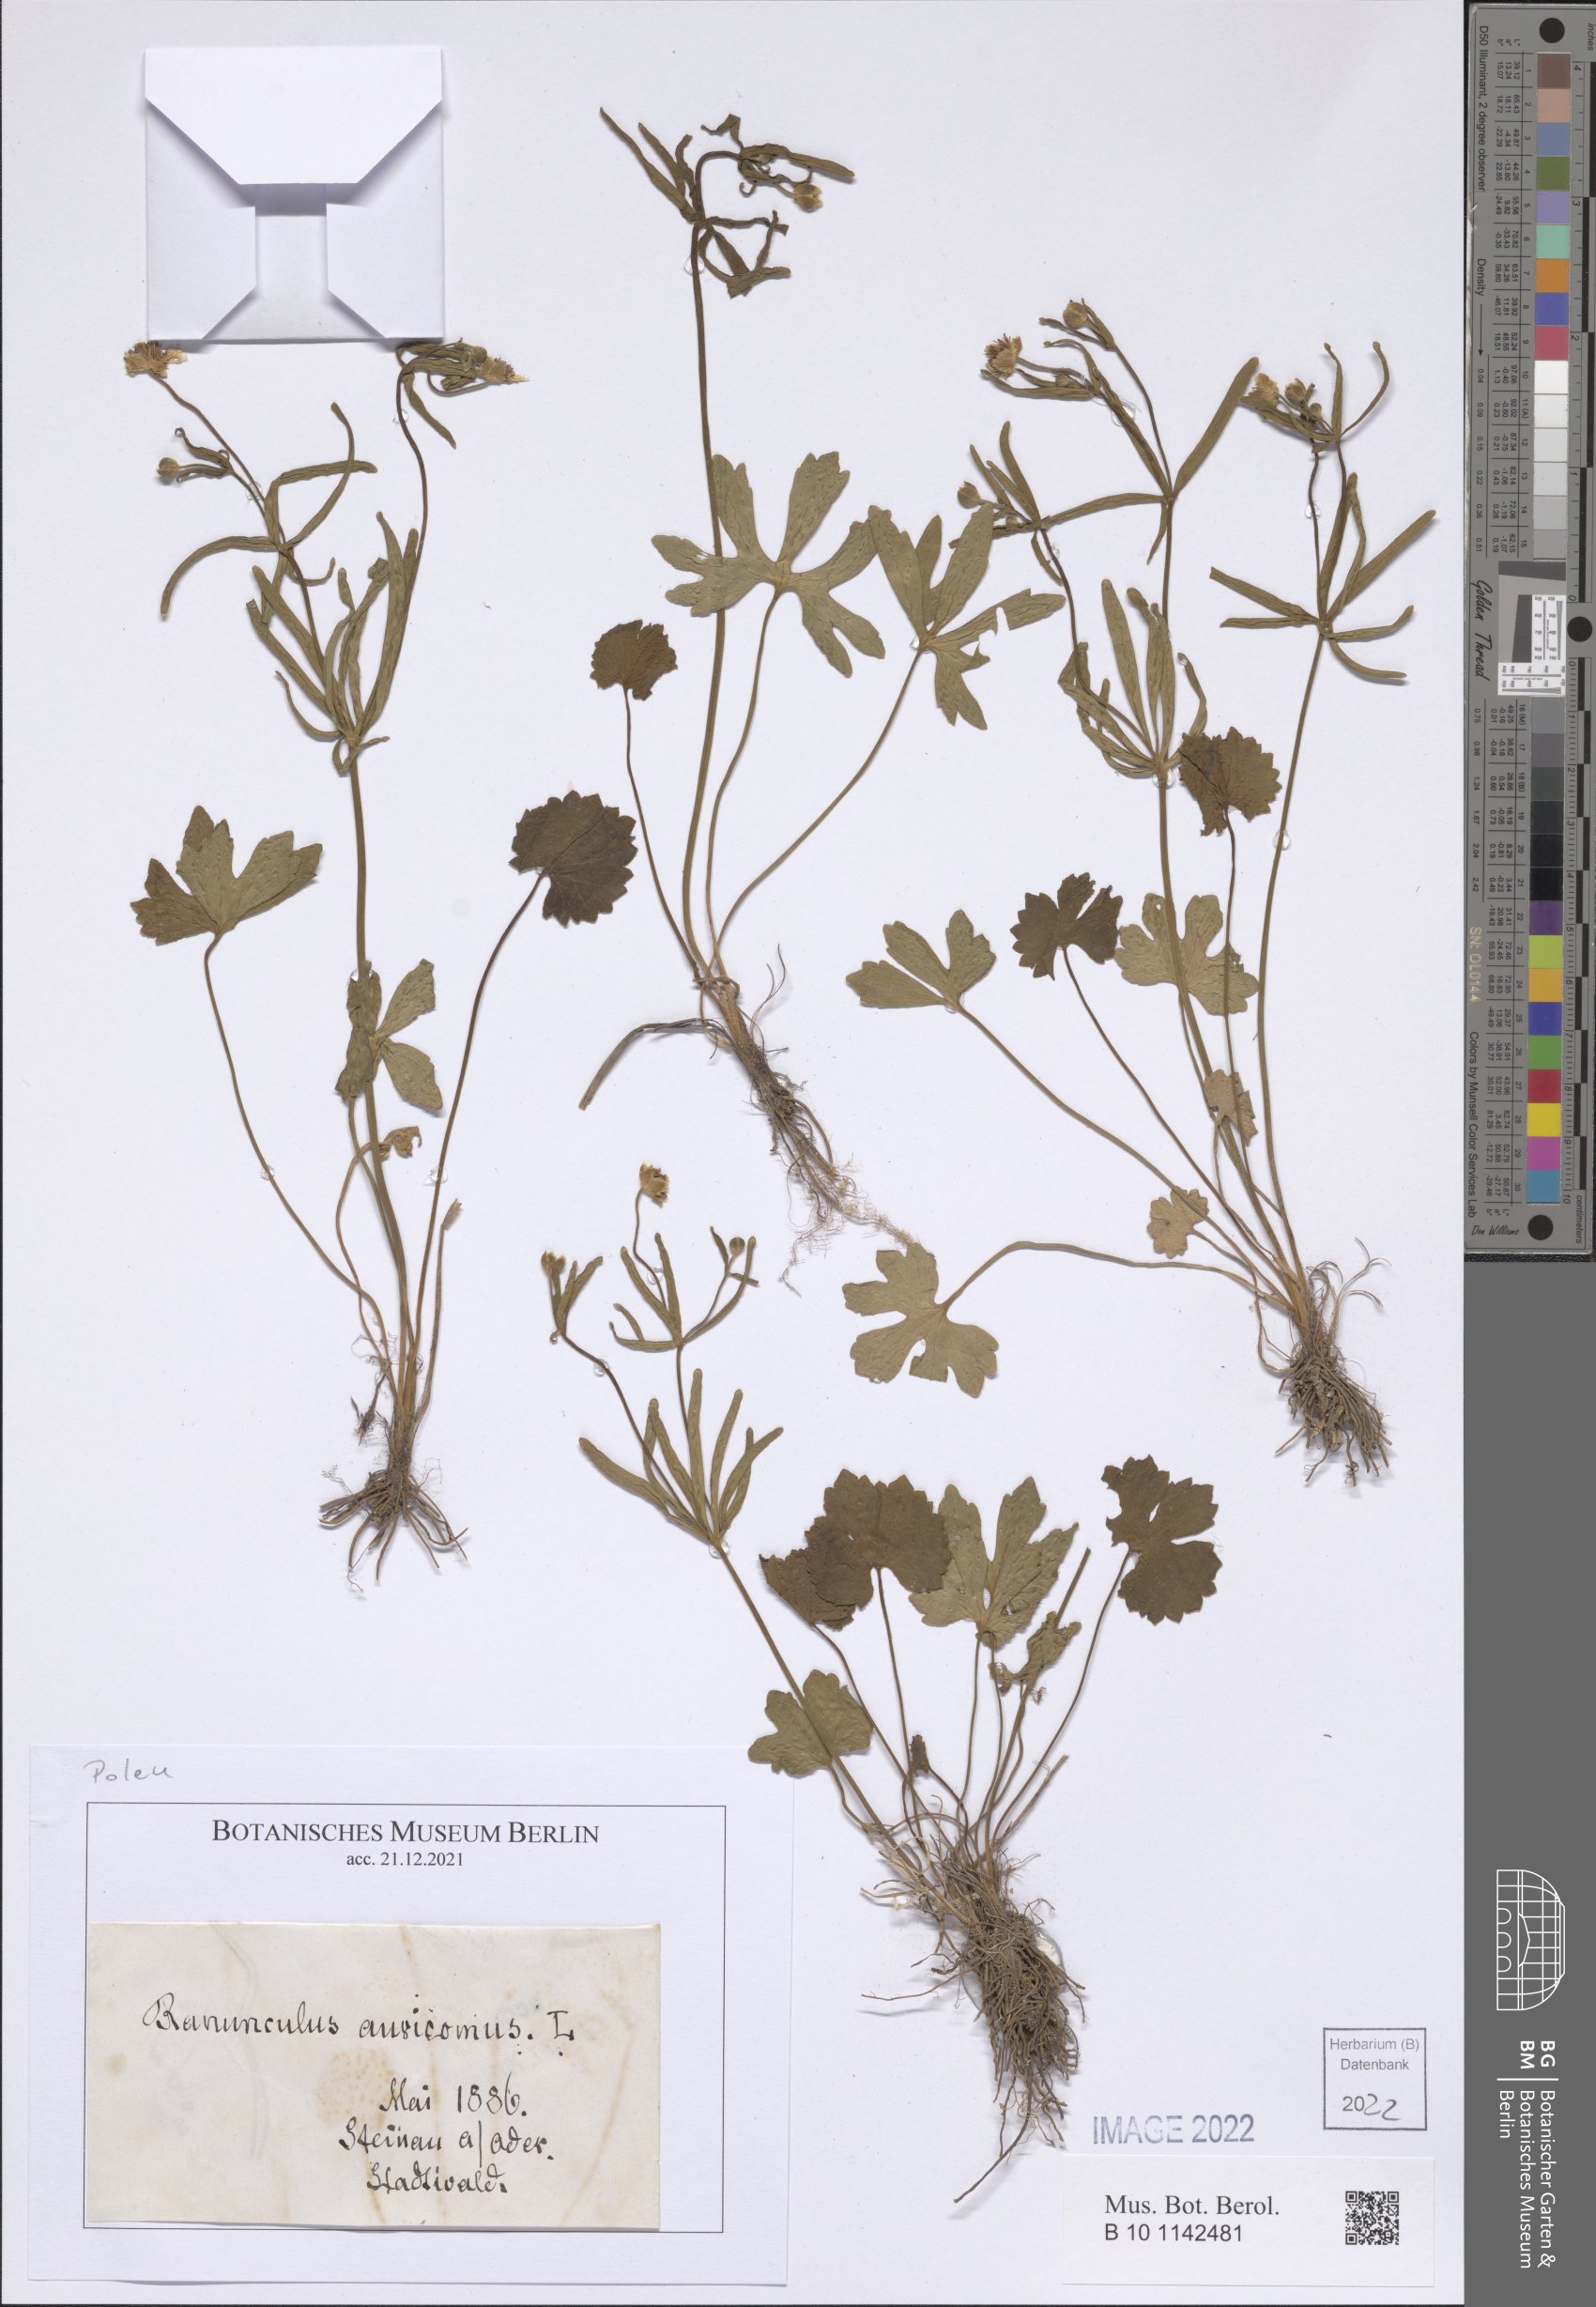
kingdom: Plantae
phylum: Tracheophyta
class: Magnoliopsida
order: Ranunculales
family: Ranunculaceae
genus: Ranunculus
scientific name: Ranunculus auricomus
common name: Goldilocks buttercup
